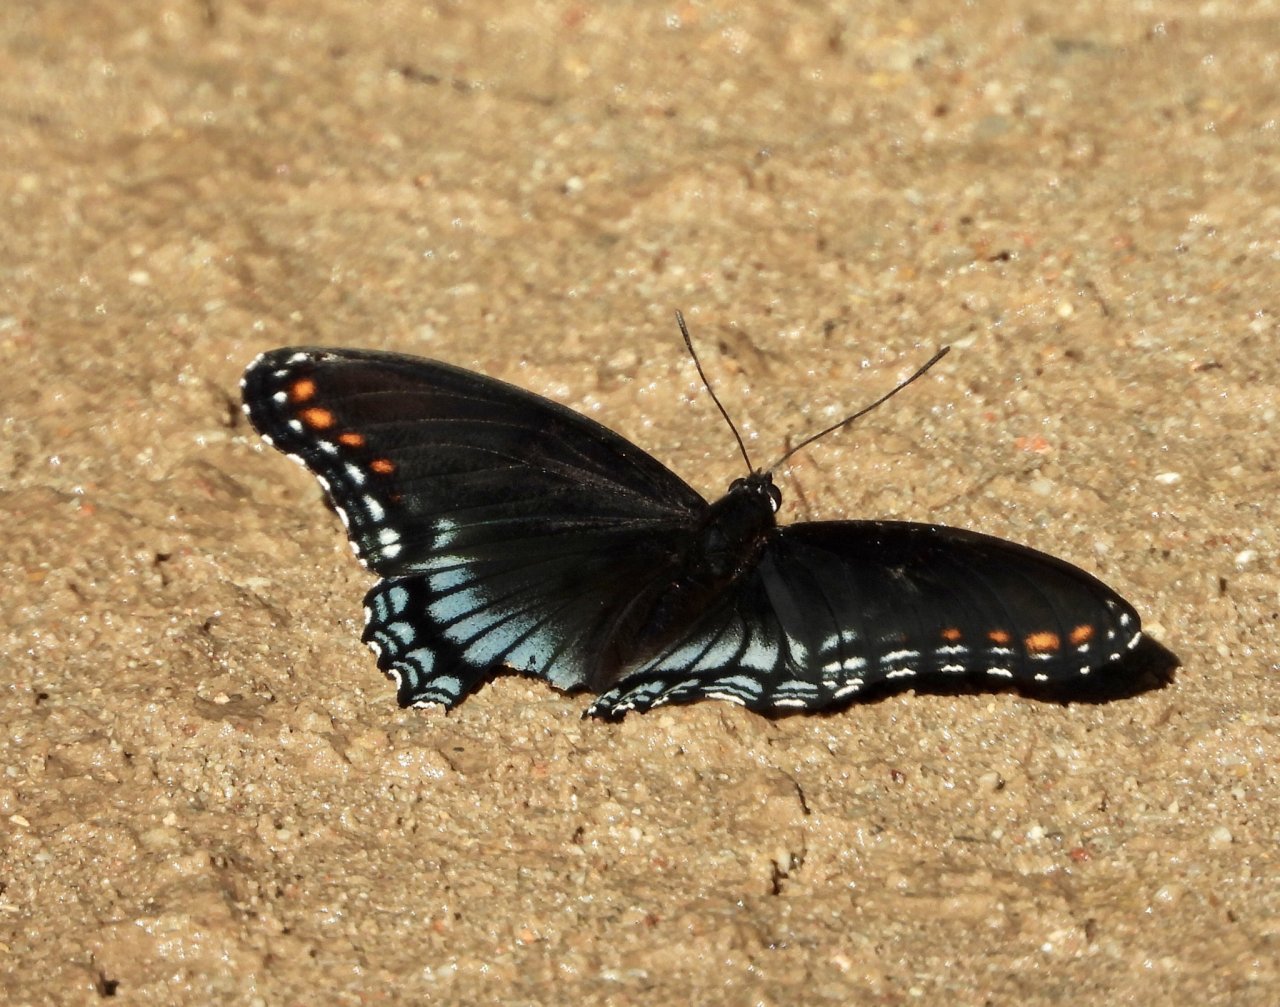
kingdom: Animalia
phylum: Arthropoda
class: Insecta
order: Lepidoptera
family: Nymphalidae
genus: Limenitis
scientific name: Limenitis arthemis
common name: Red-spotted Admiral
